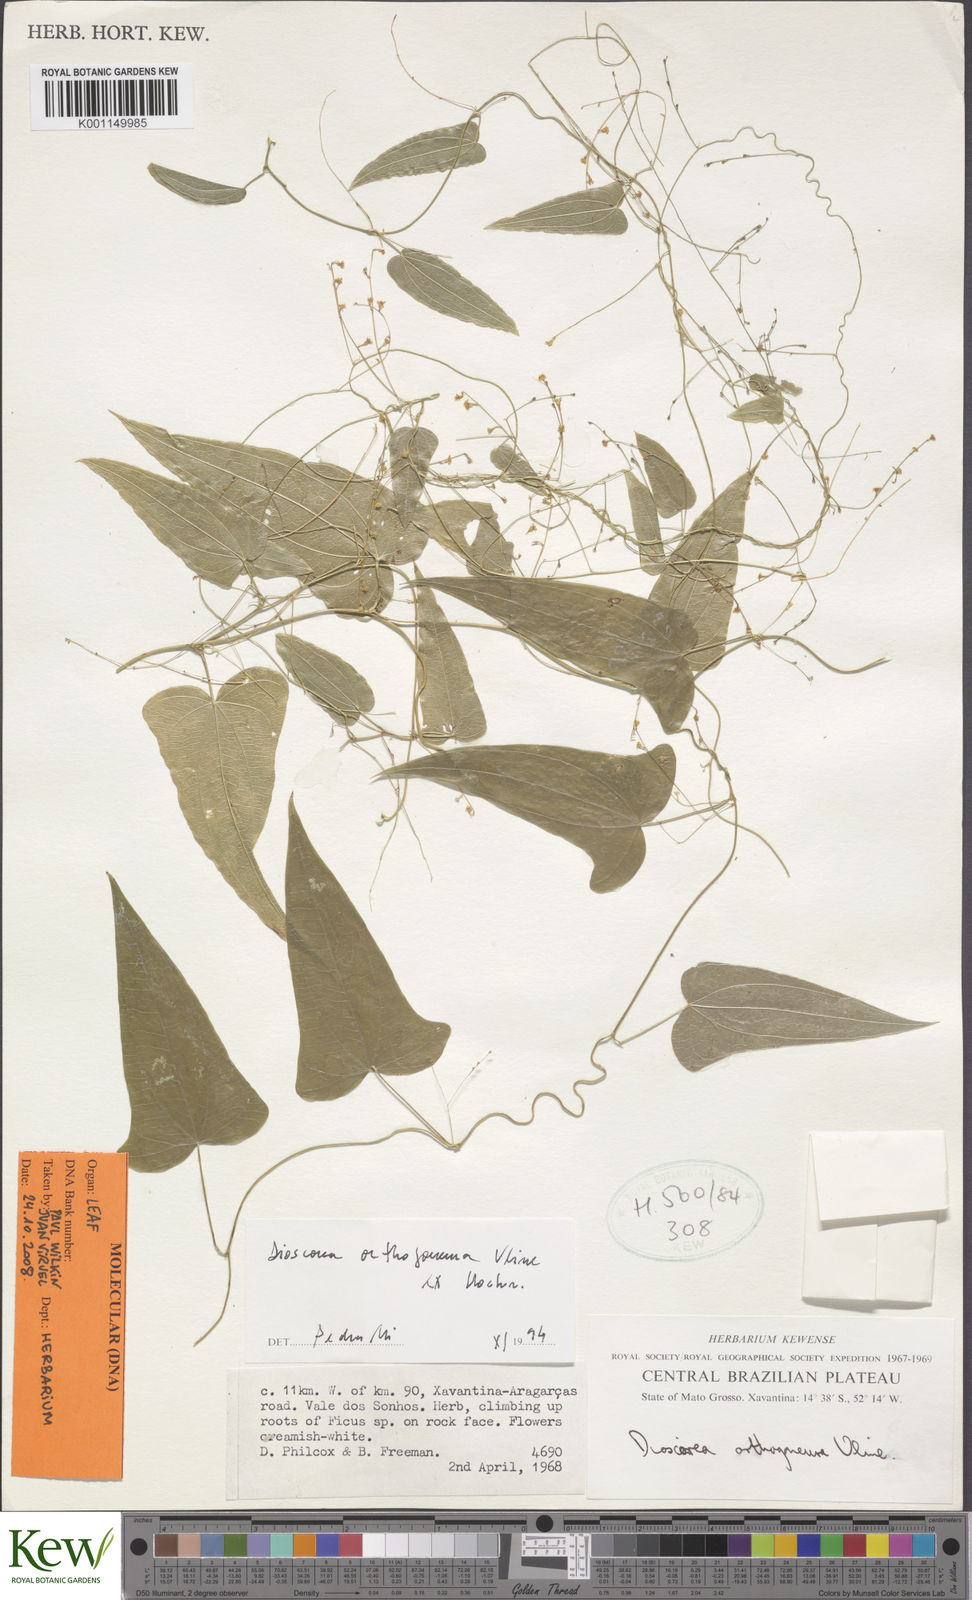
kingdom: Plantae
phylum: Tracheophyta
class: Liliopsida
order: Dioscoreales
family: Dioscoreaceae
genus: Dioscorea
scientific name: Dioscorea orthogoneura
